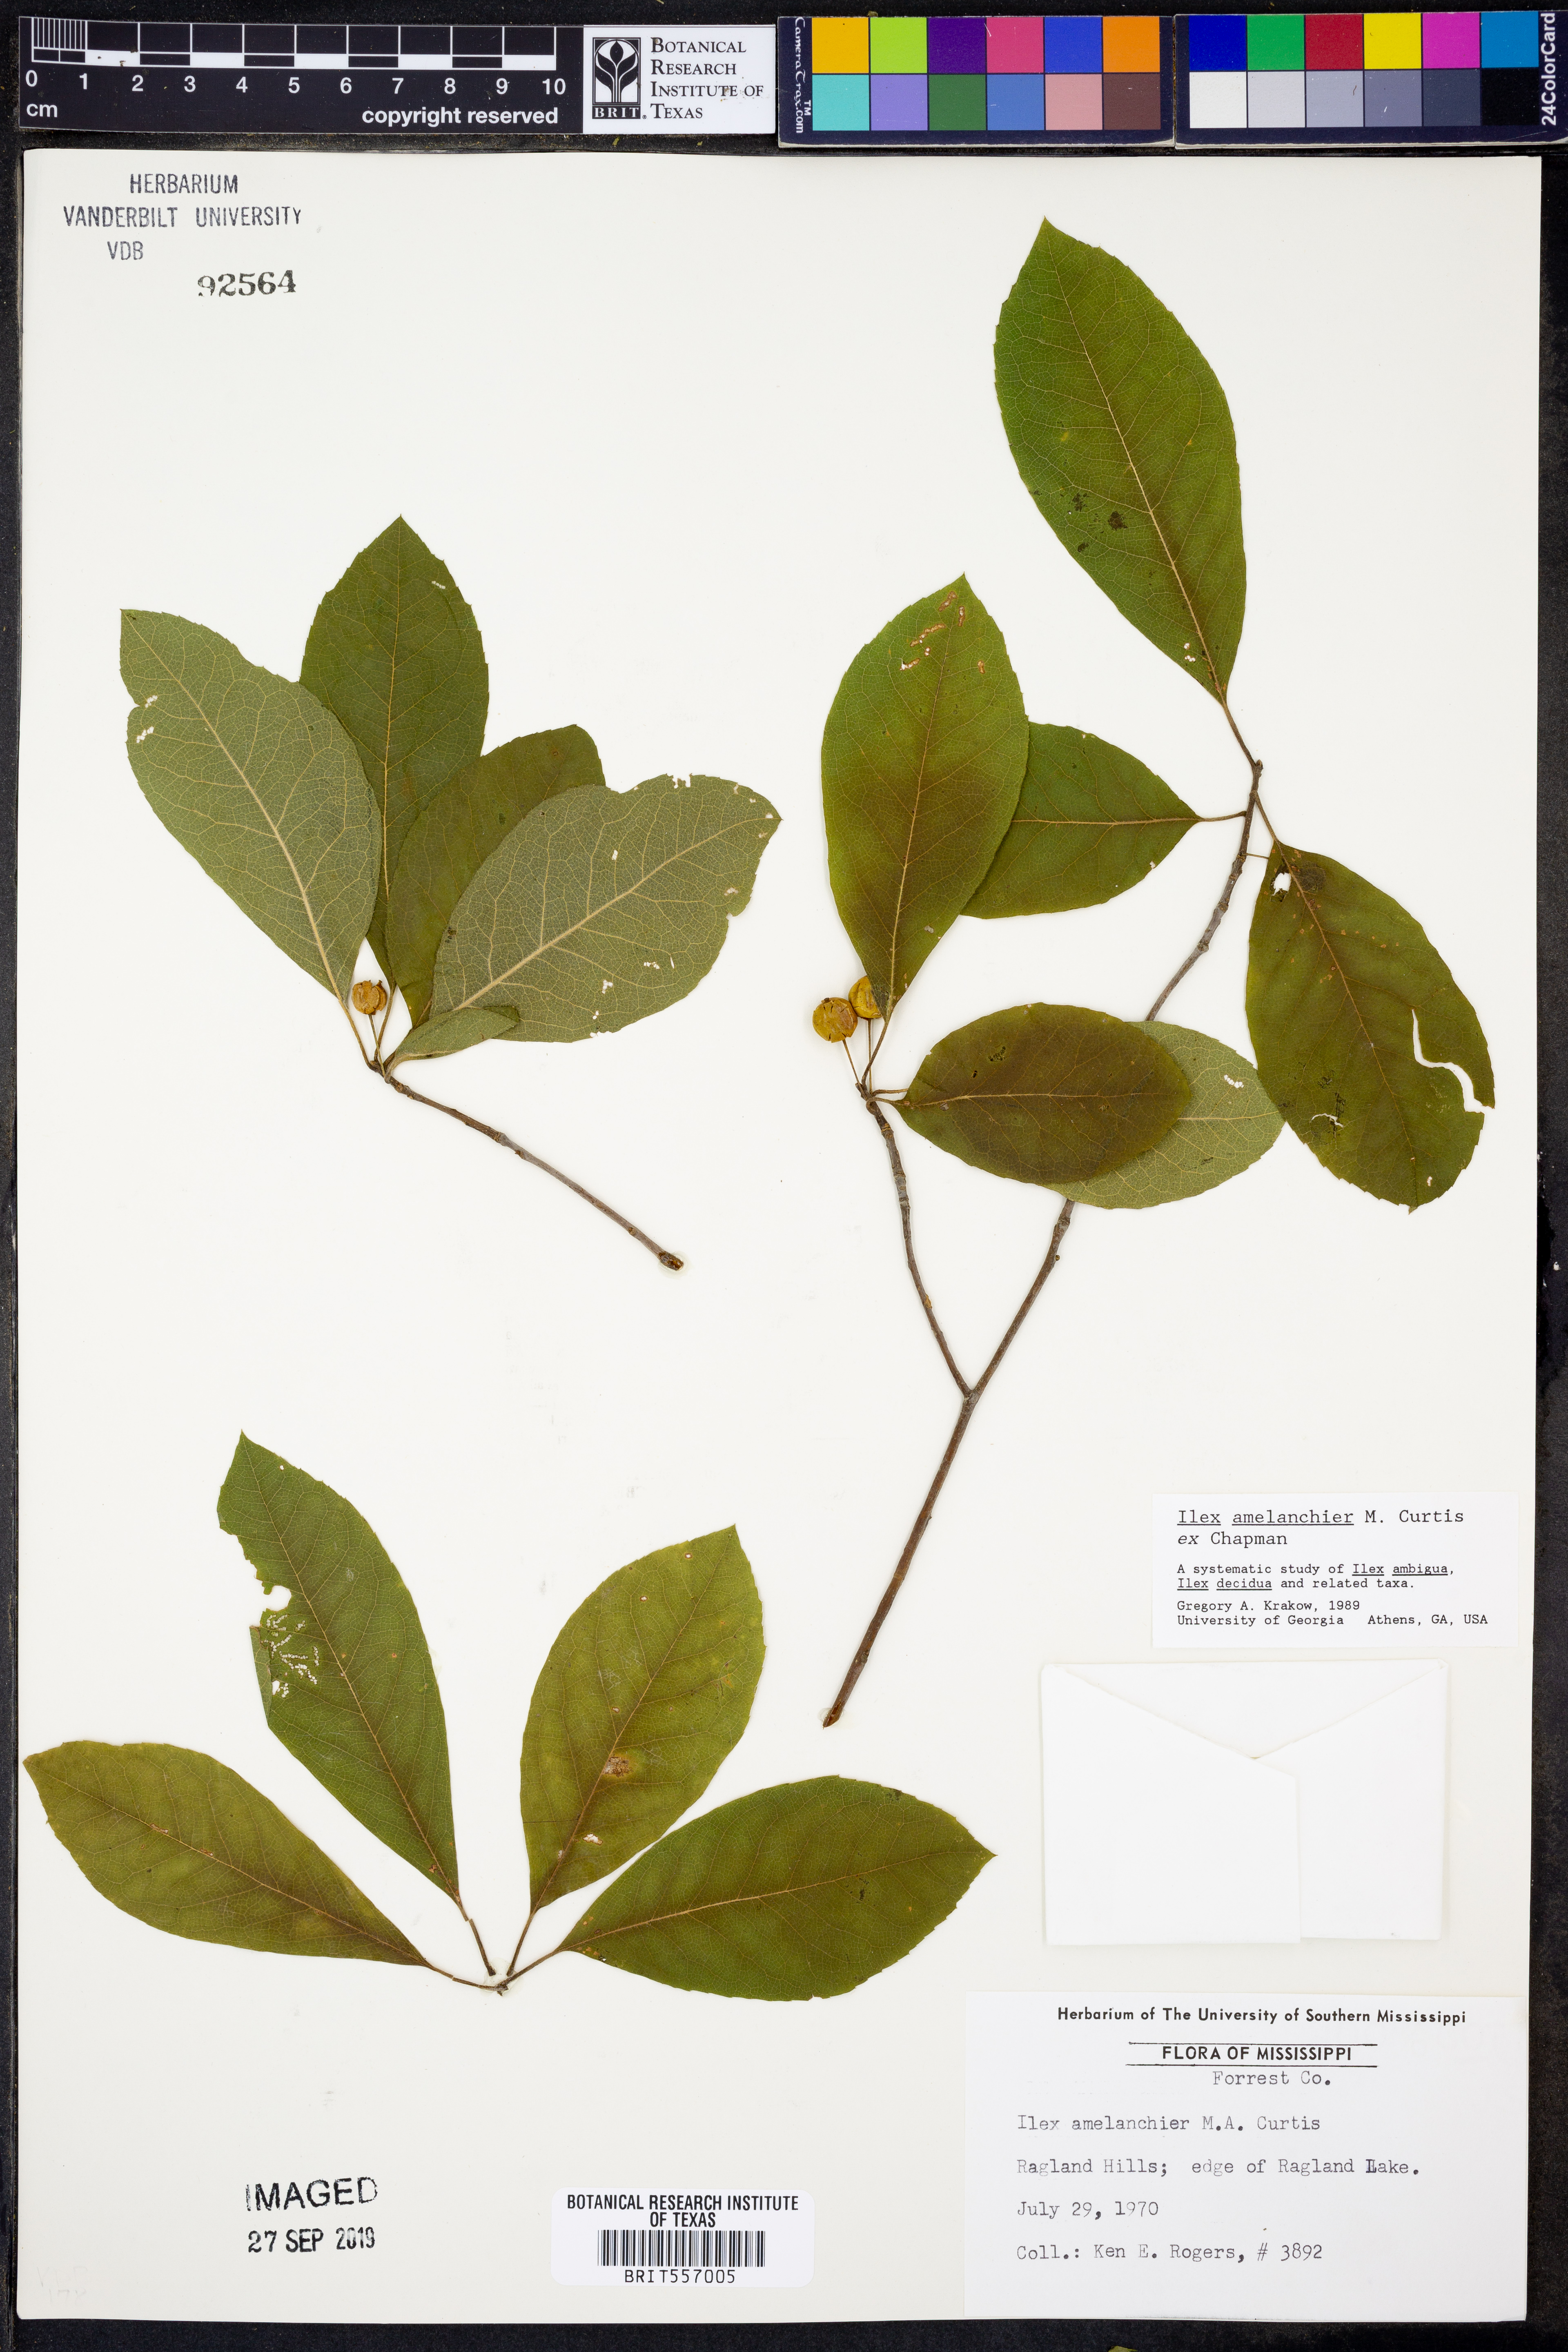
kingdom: Plantae
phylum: Tracheophyta
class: Magnoliopsida
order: Aquifoliales
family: Aquifoliaceae
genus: Ilex
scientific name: Ilex amelanchier
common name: Sarvis holly
